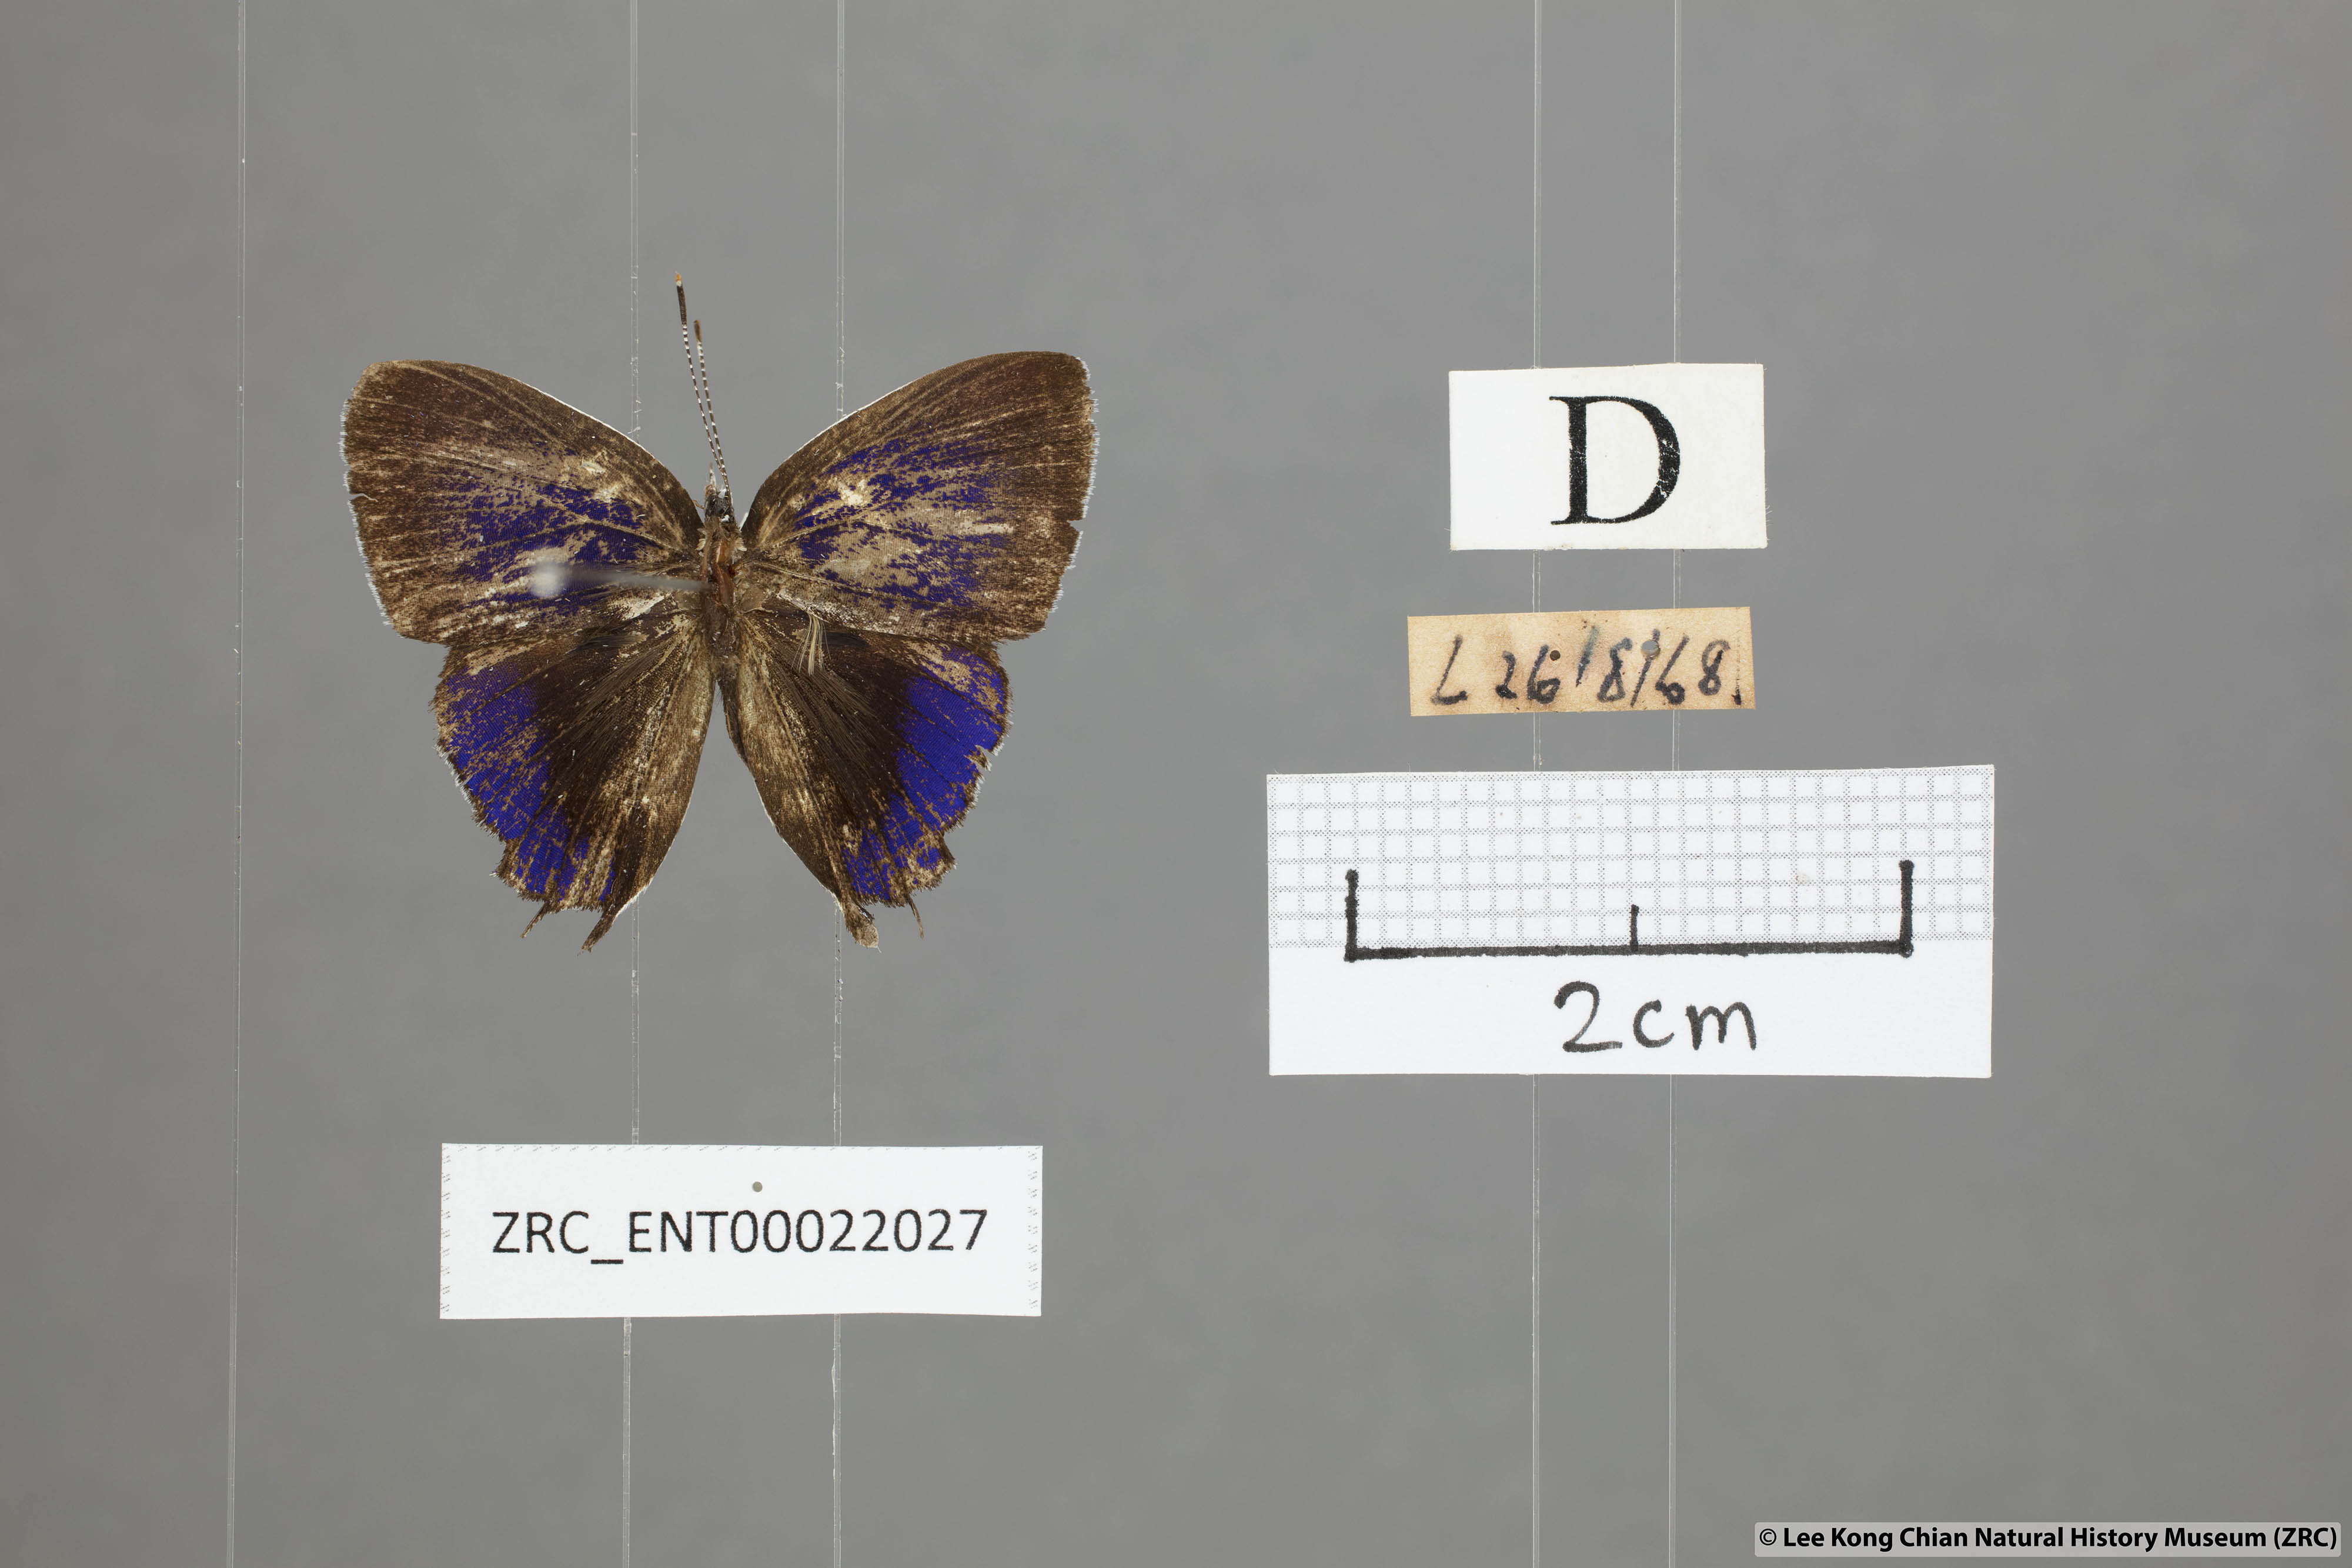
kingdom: Animalia
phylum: Arthropoda
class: Insecta
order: Lepidoptera
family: Lycaenidae
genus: Sithon
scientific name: Sithon nedymond
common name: Plush
